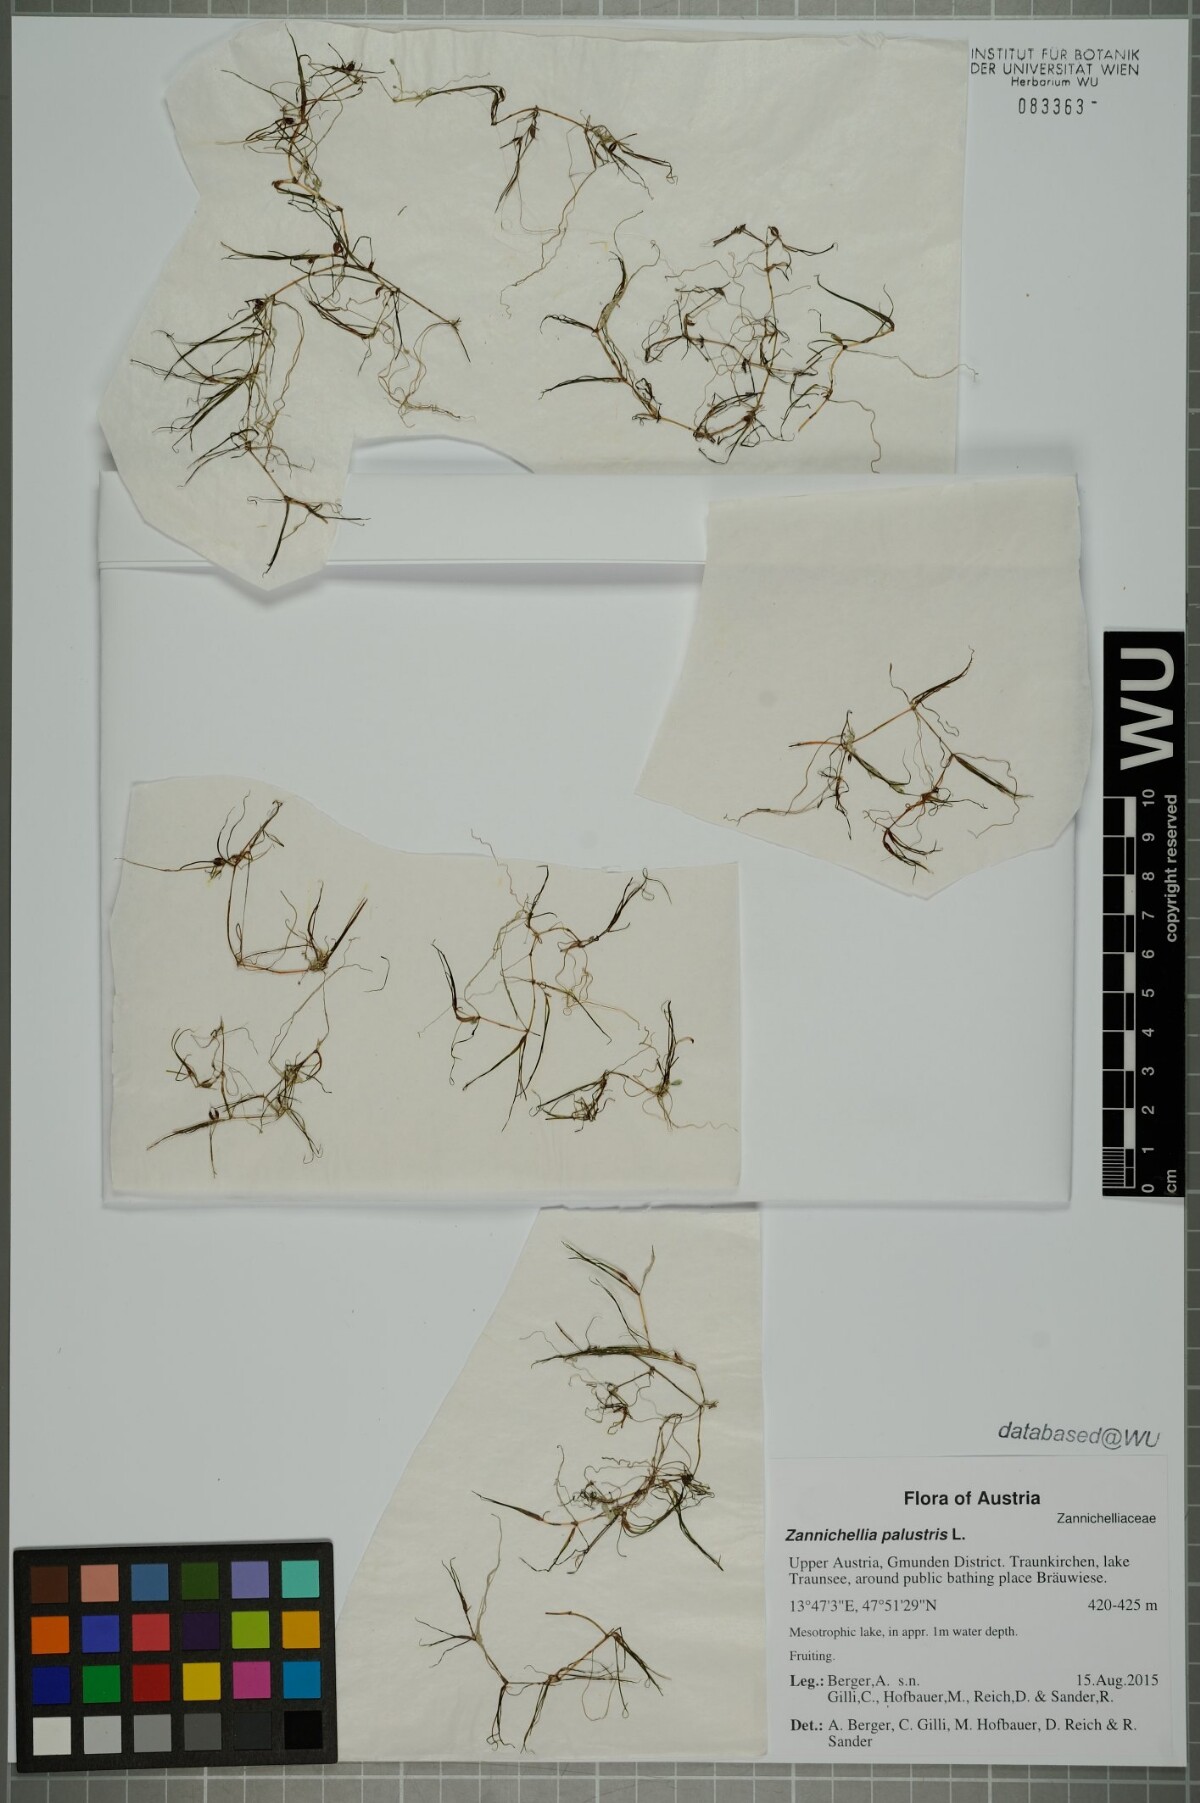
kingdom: Plantae
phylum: Tracheophyta
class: Liliopsida
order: Alismatales
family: Potamogetonaceae
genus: Zannichellia
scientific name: Zannichellia palustris
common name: Horned pondweed
